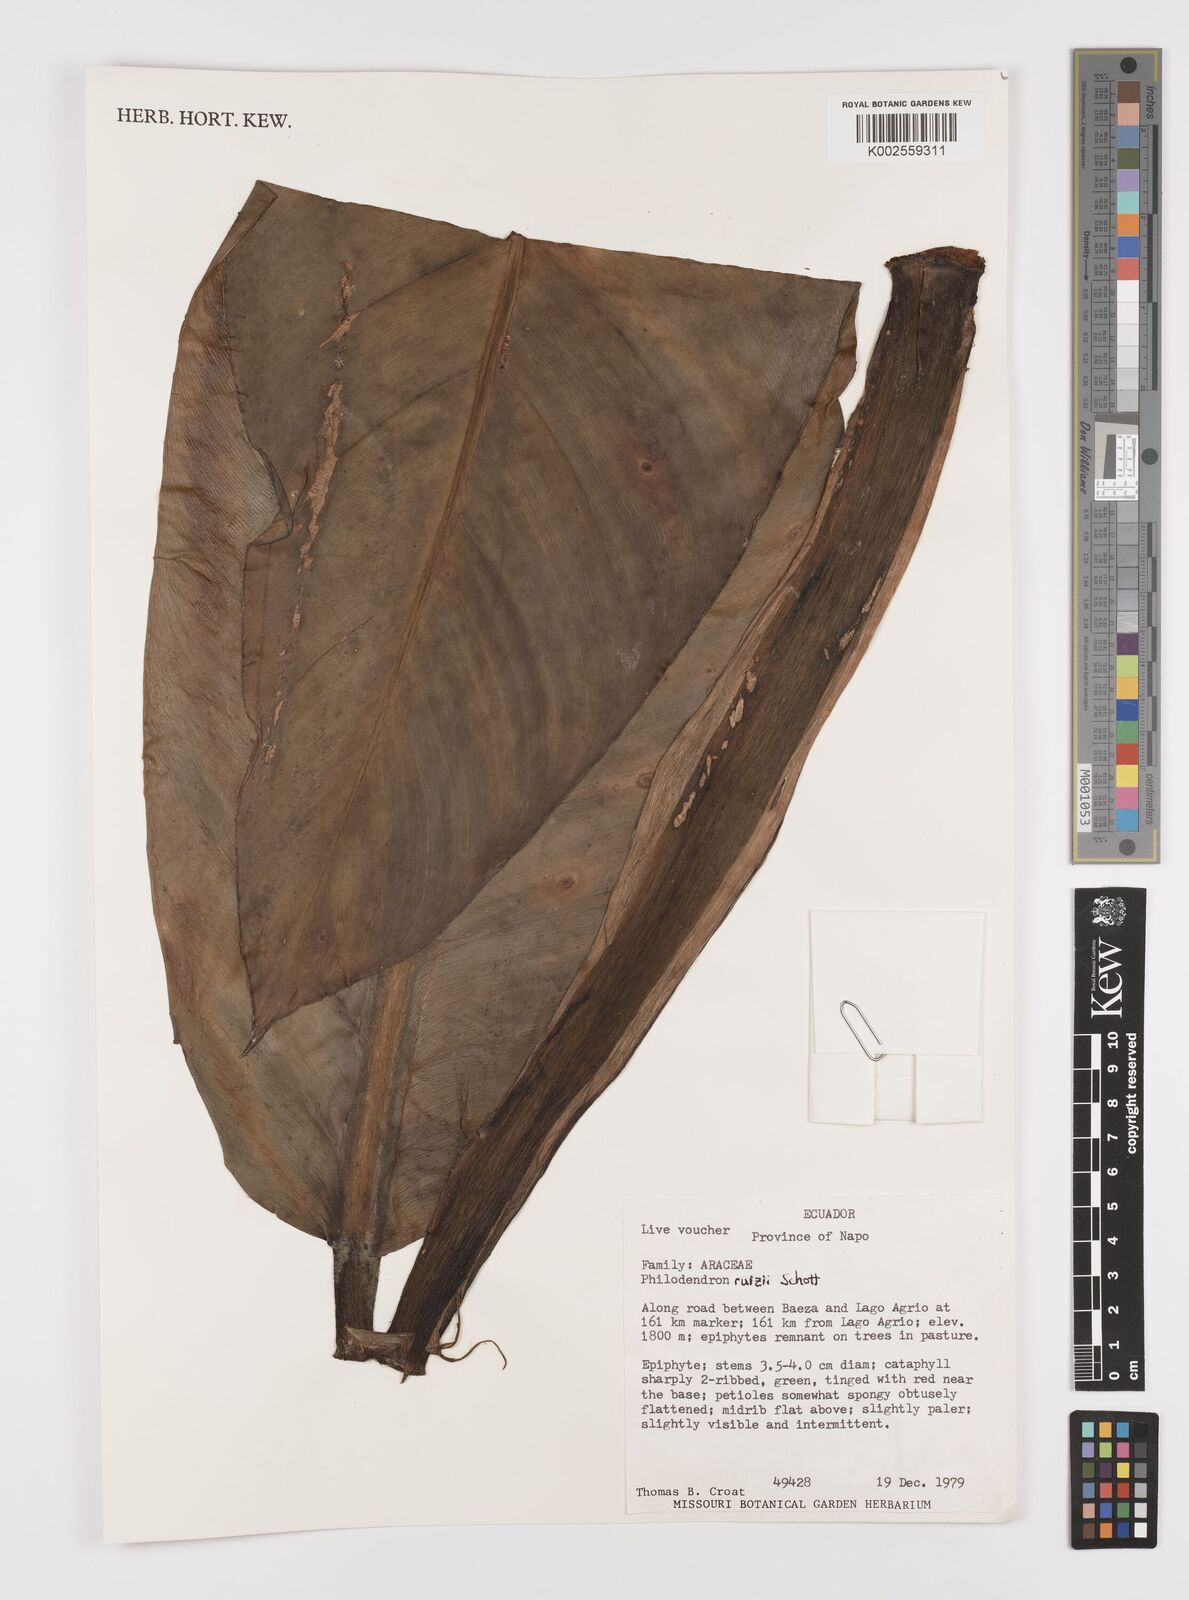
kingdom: Plantae
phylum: Tracheophyta
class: Liliopsida
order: Alismatales
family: Araceae
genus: Philodendron
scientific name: Philodendron ruizii
